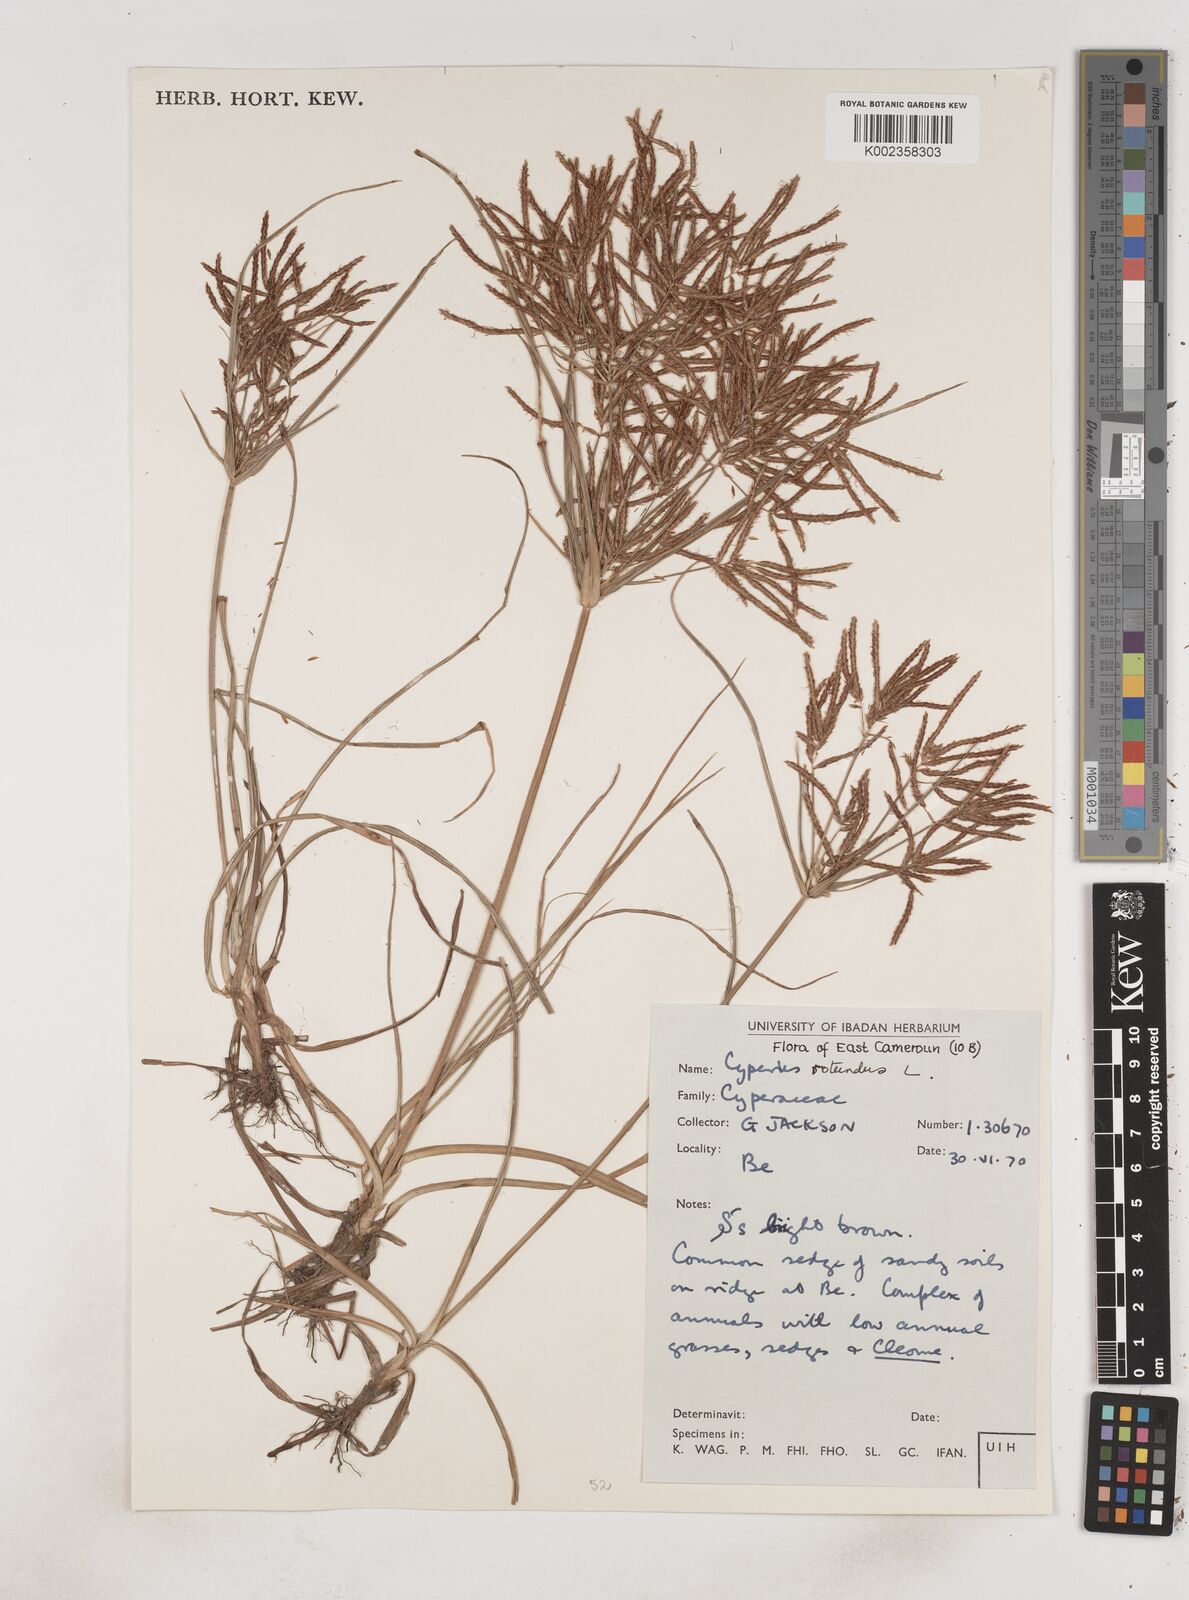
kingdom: Plantae
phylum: Tracheophyta
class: Liliopsida
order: Poales
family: Cyperaceae
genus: Cyperus
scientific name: Cyperus rotundus
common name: Nutgrass
